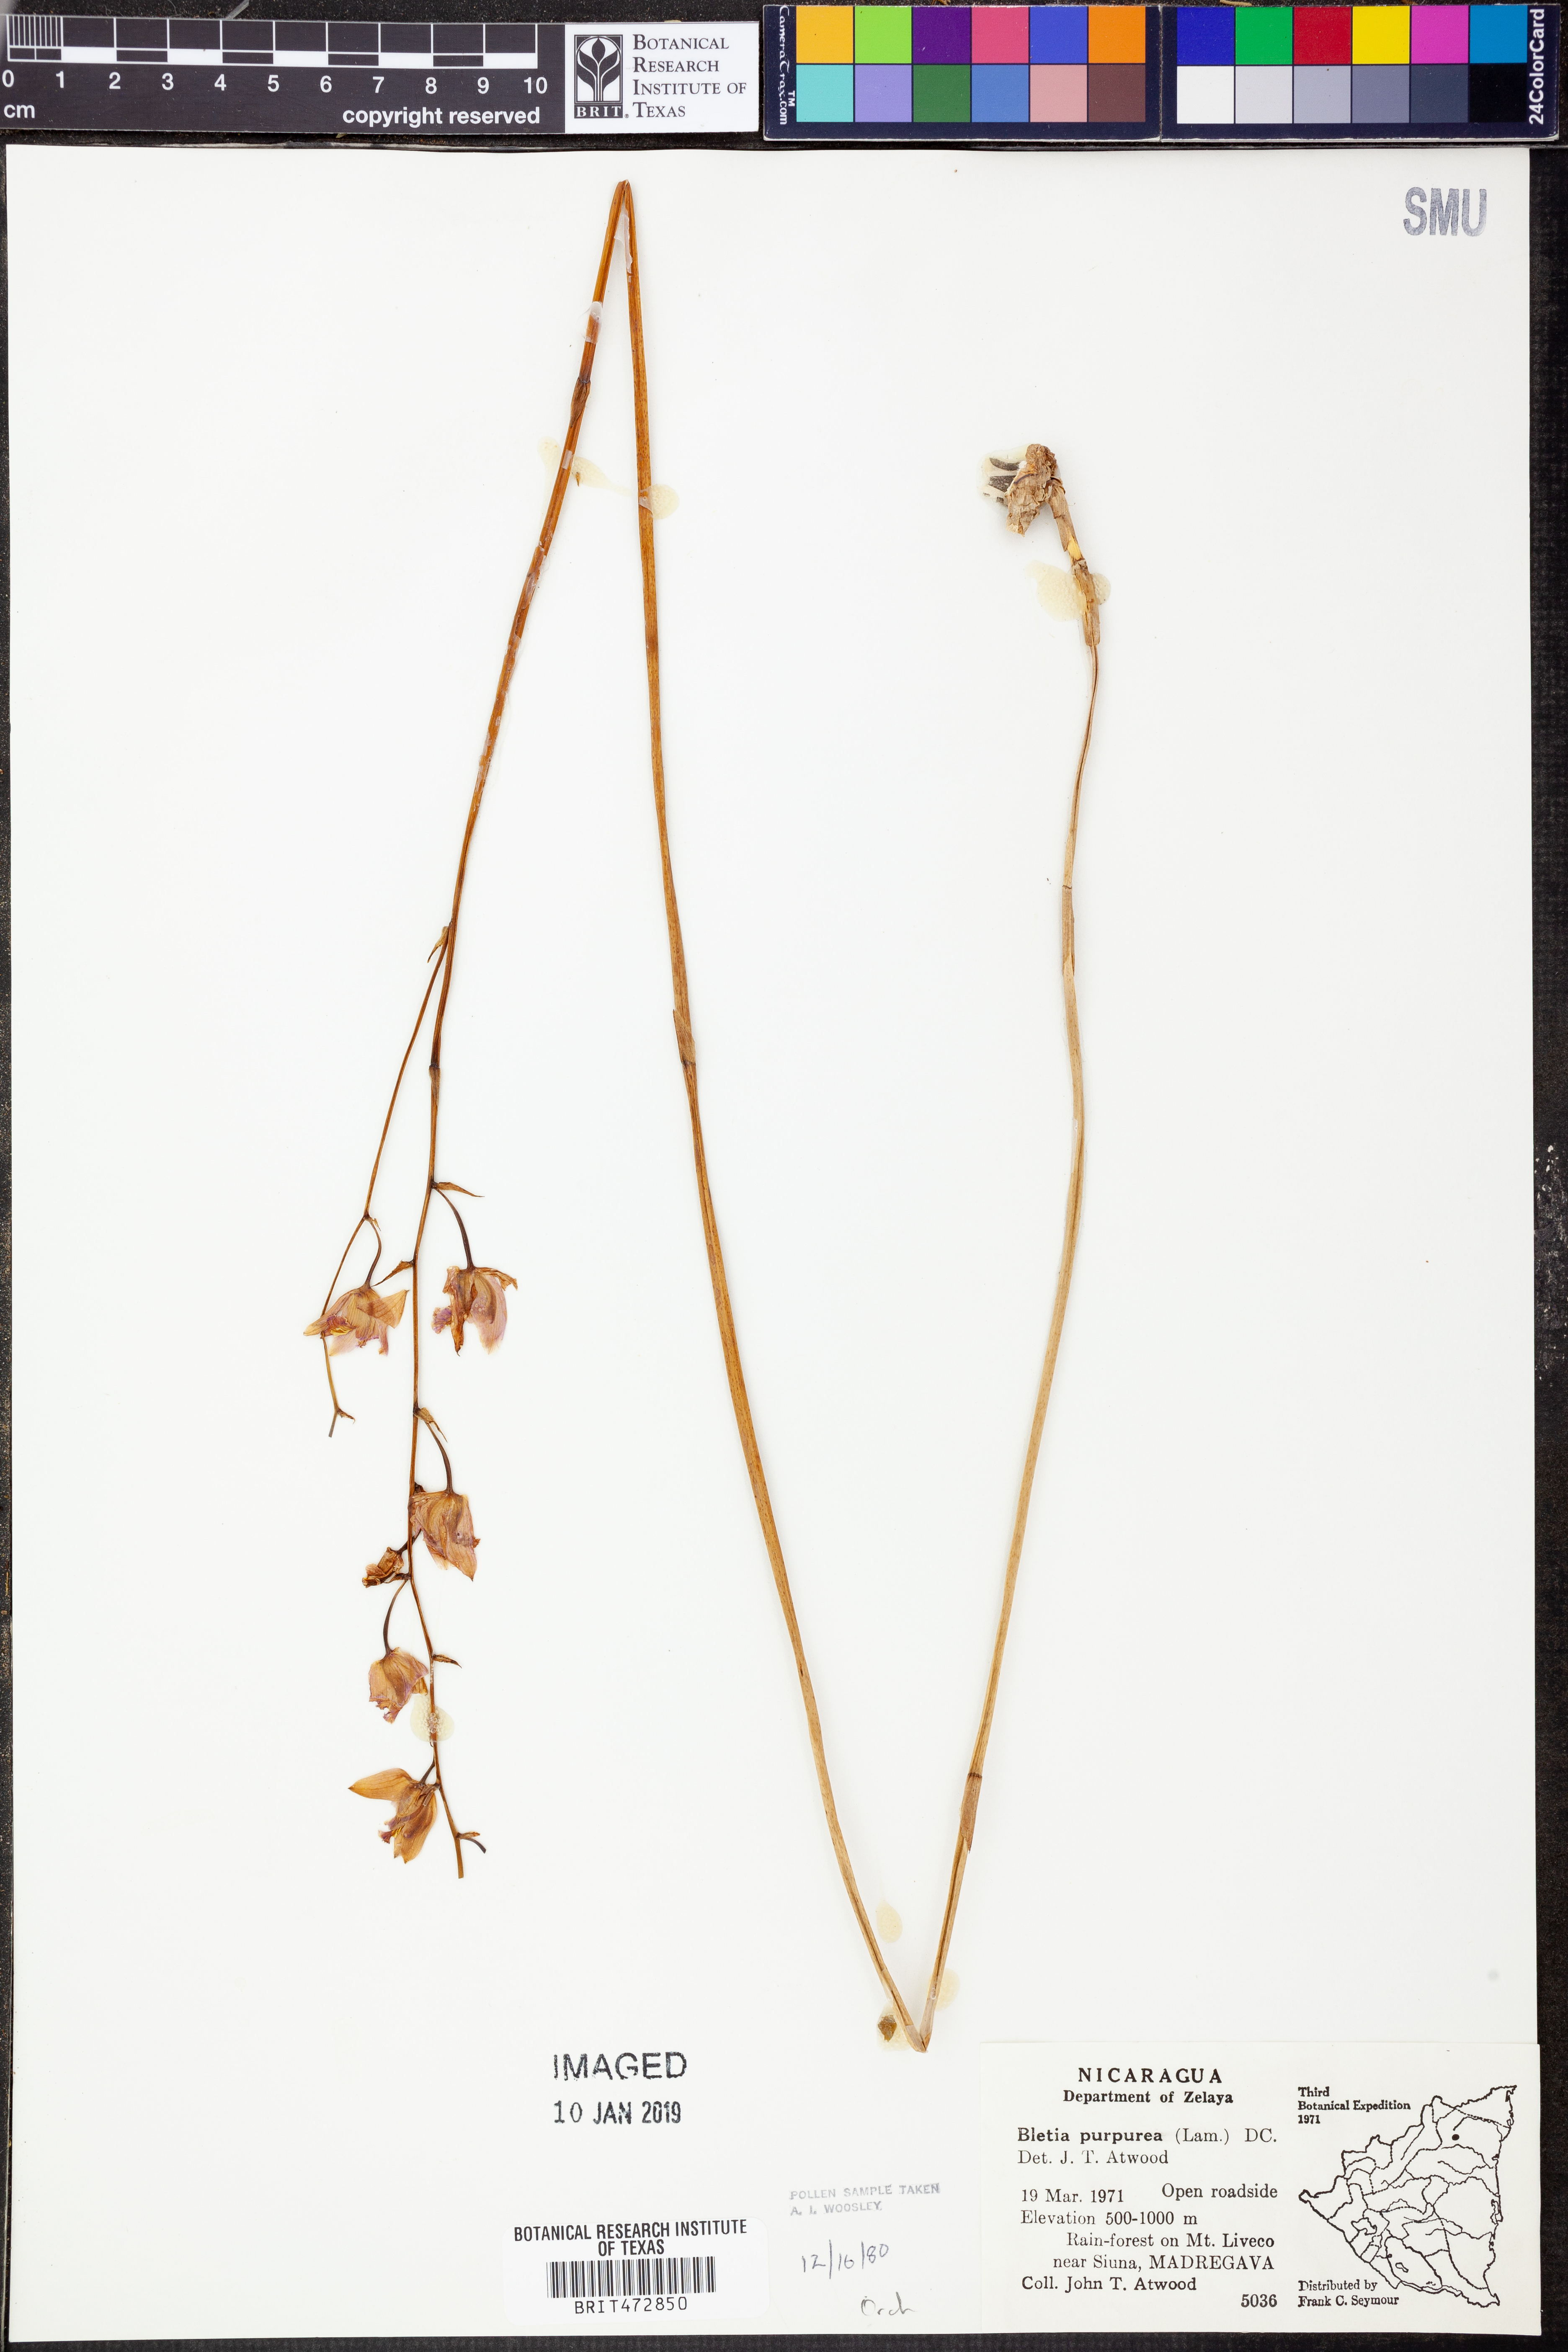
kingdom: Plantae
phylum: Tracheophyta
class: Liliopsida
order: Asparagales
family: Orchidaceae
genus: Bletia
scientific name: Bletia purpurea
